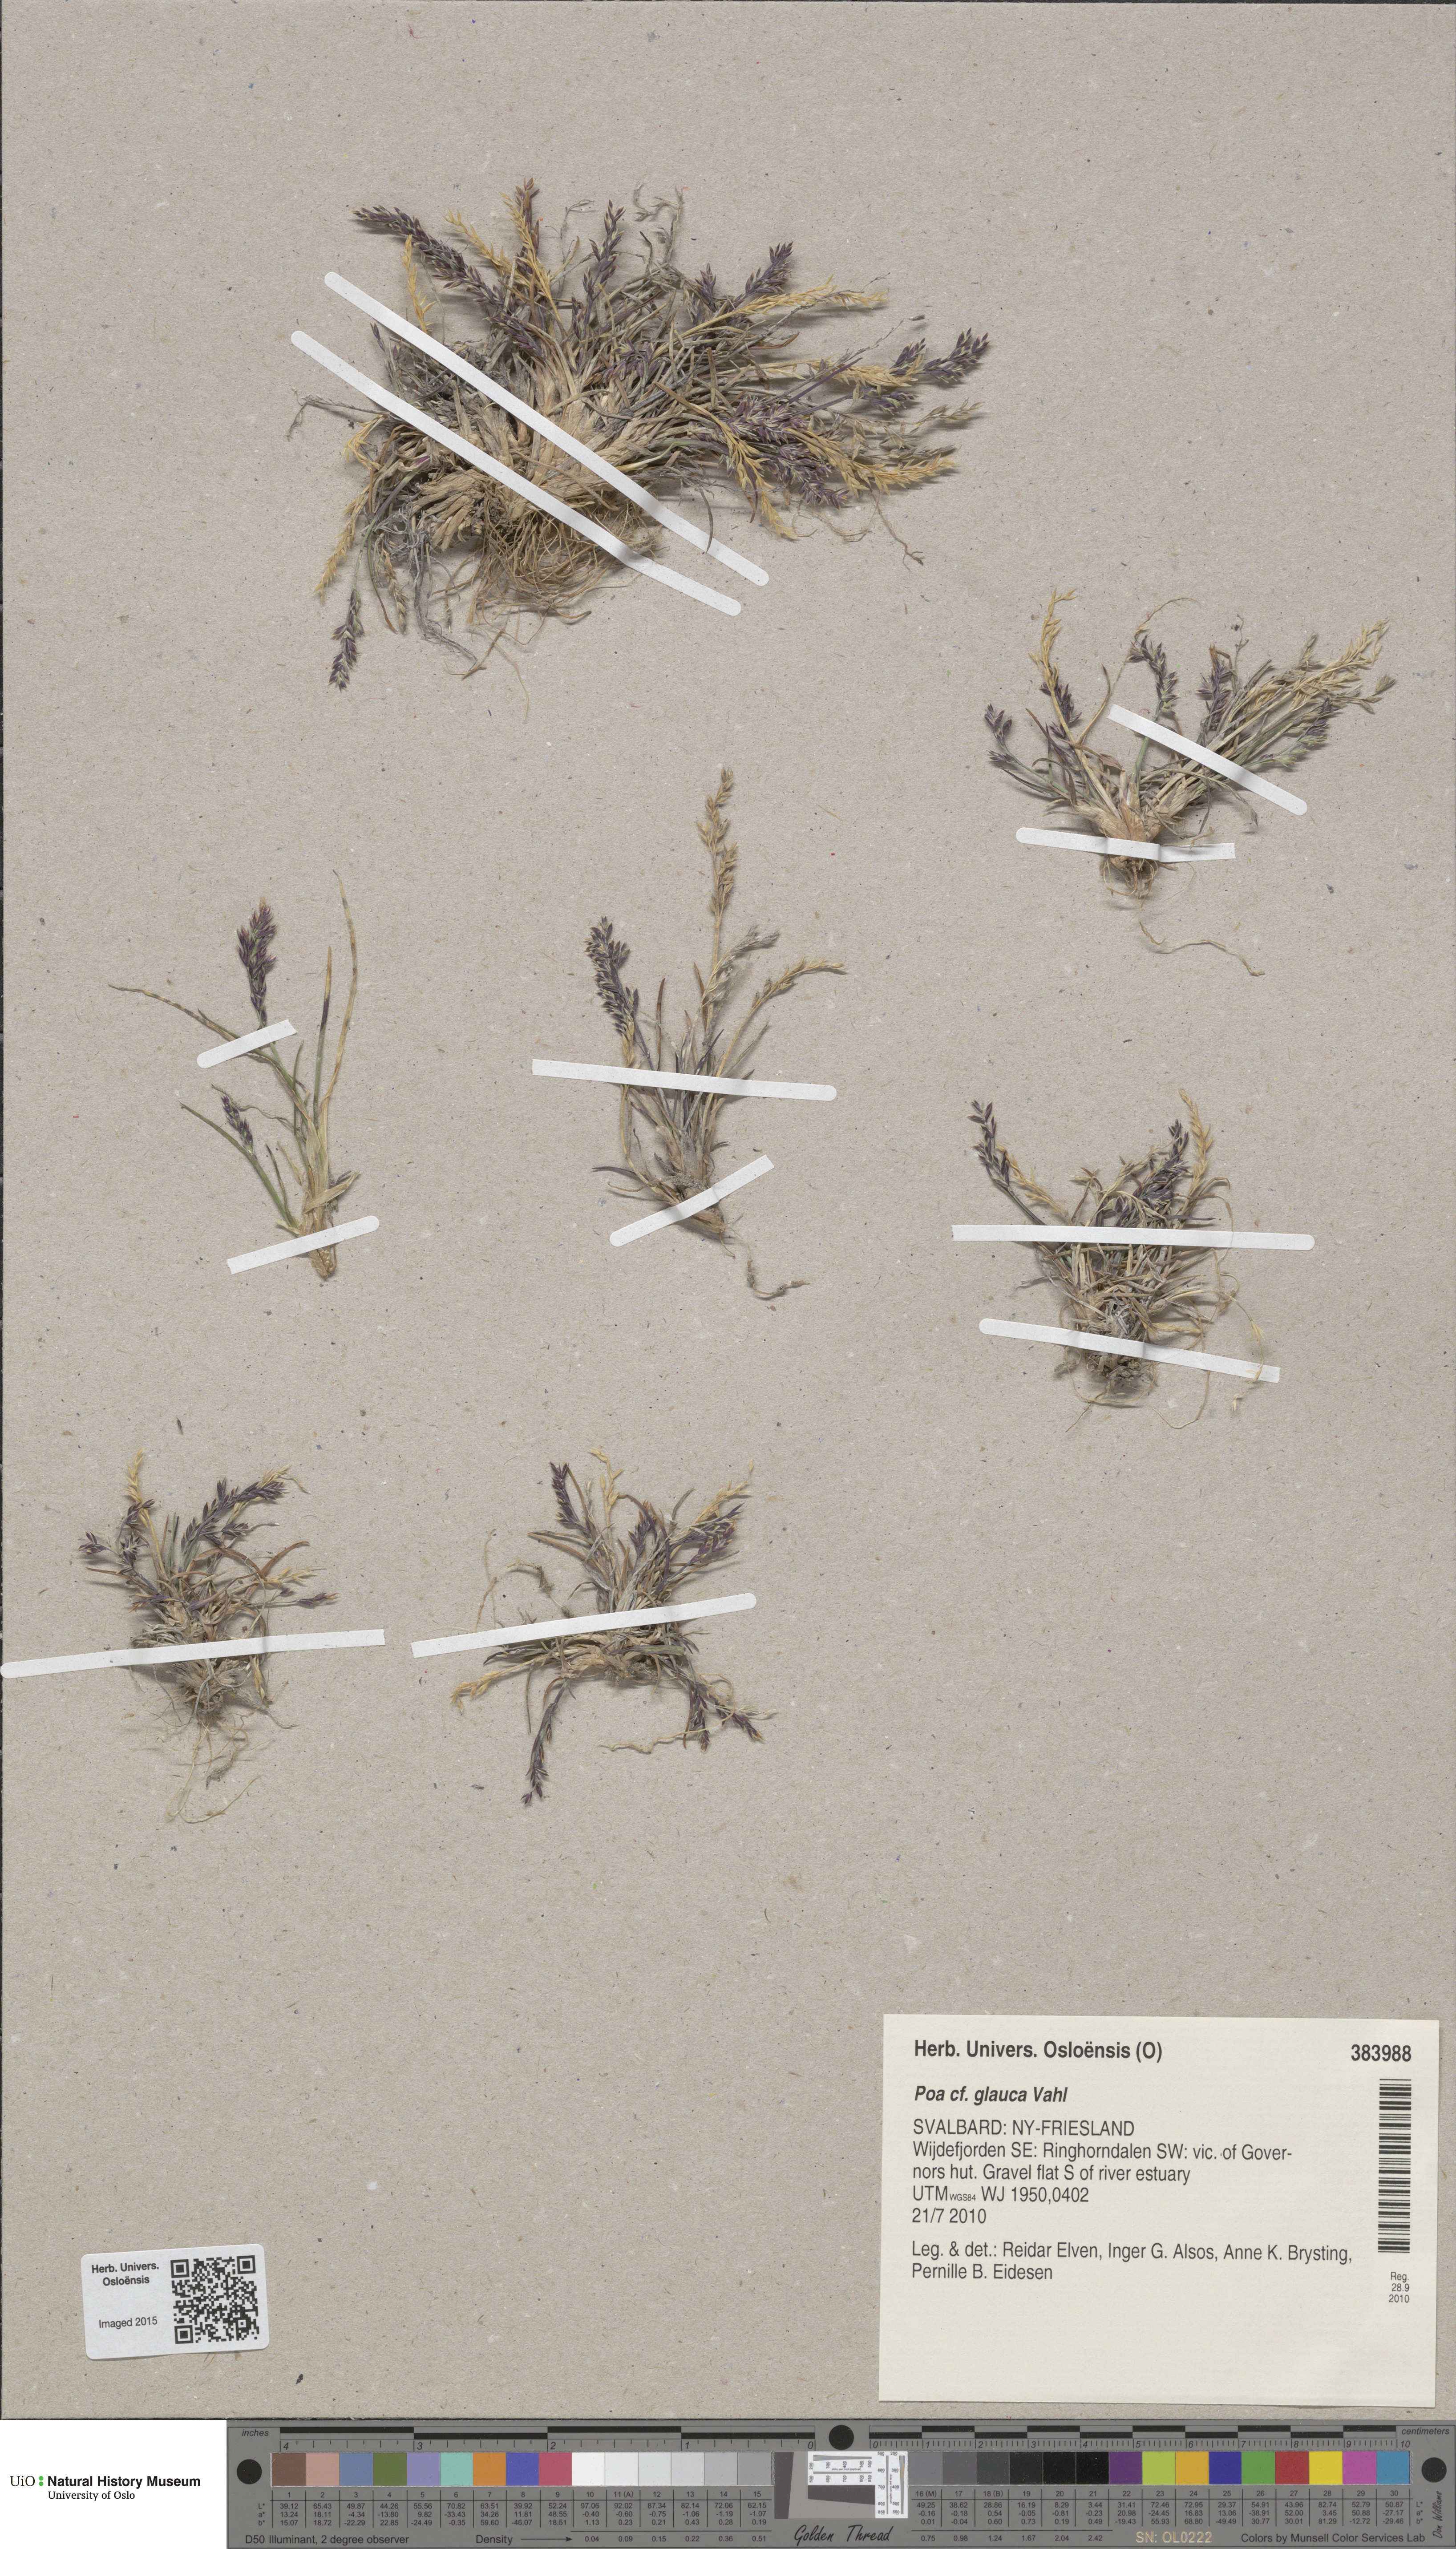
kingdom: Plantae
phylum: Tracheophyta
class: Liliopsida
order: Poales
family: Poaceae
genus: Poa
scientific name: Poa glauca
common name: Glaucous bluegrass
